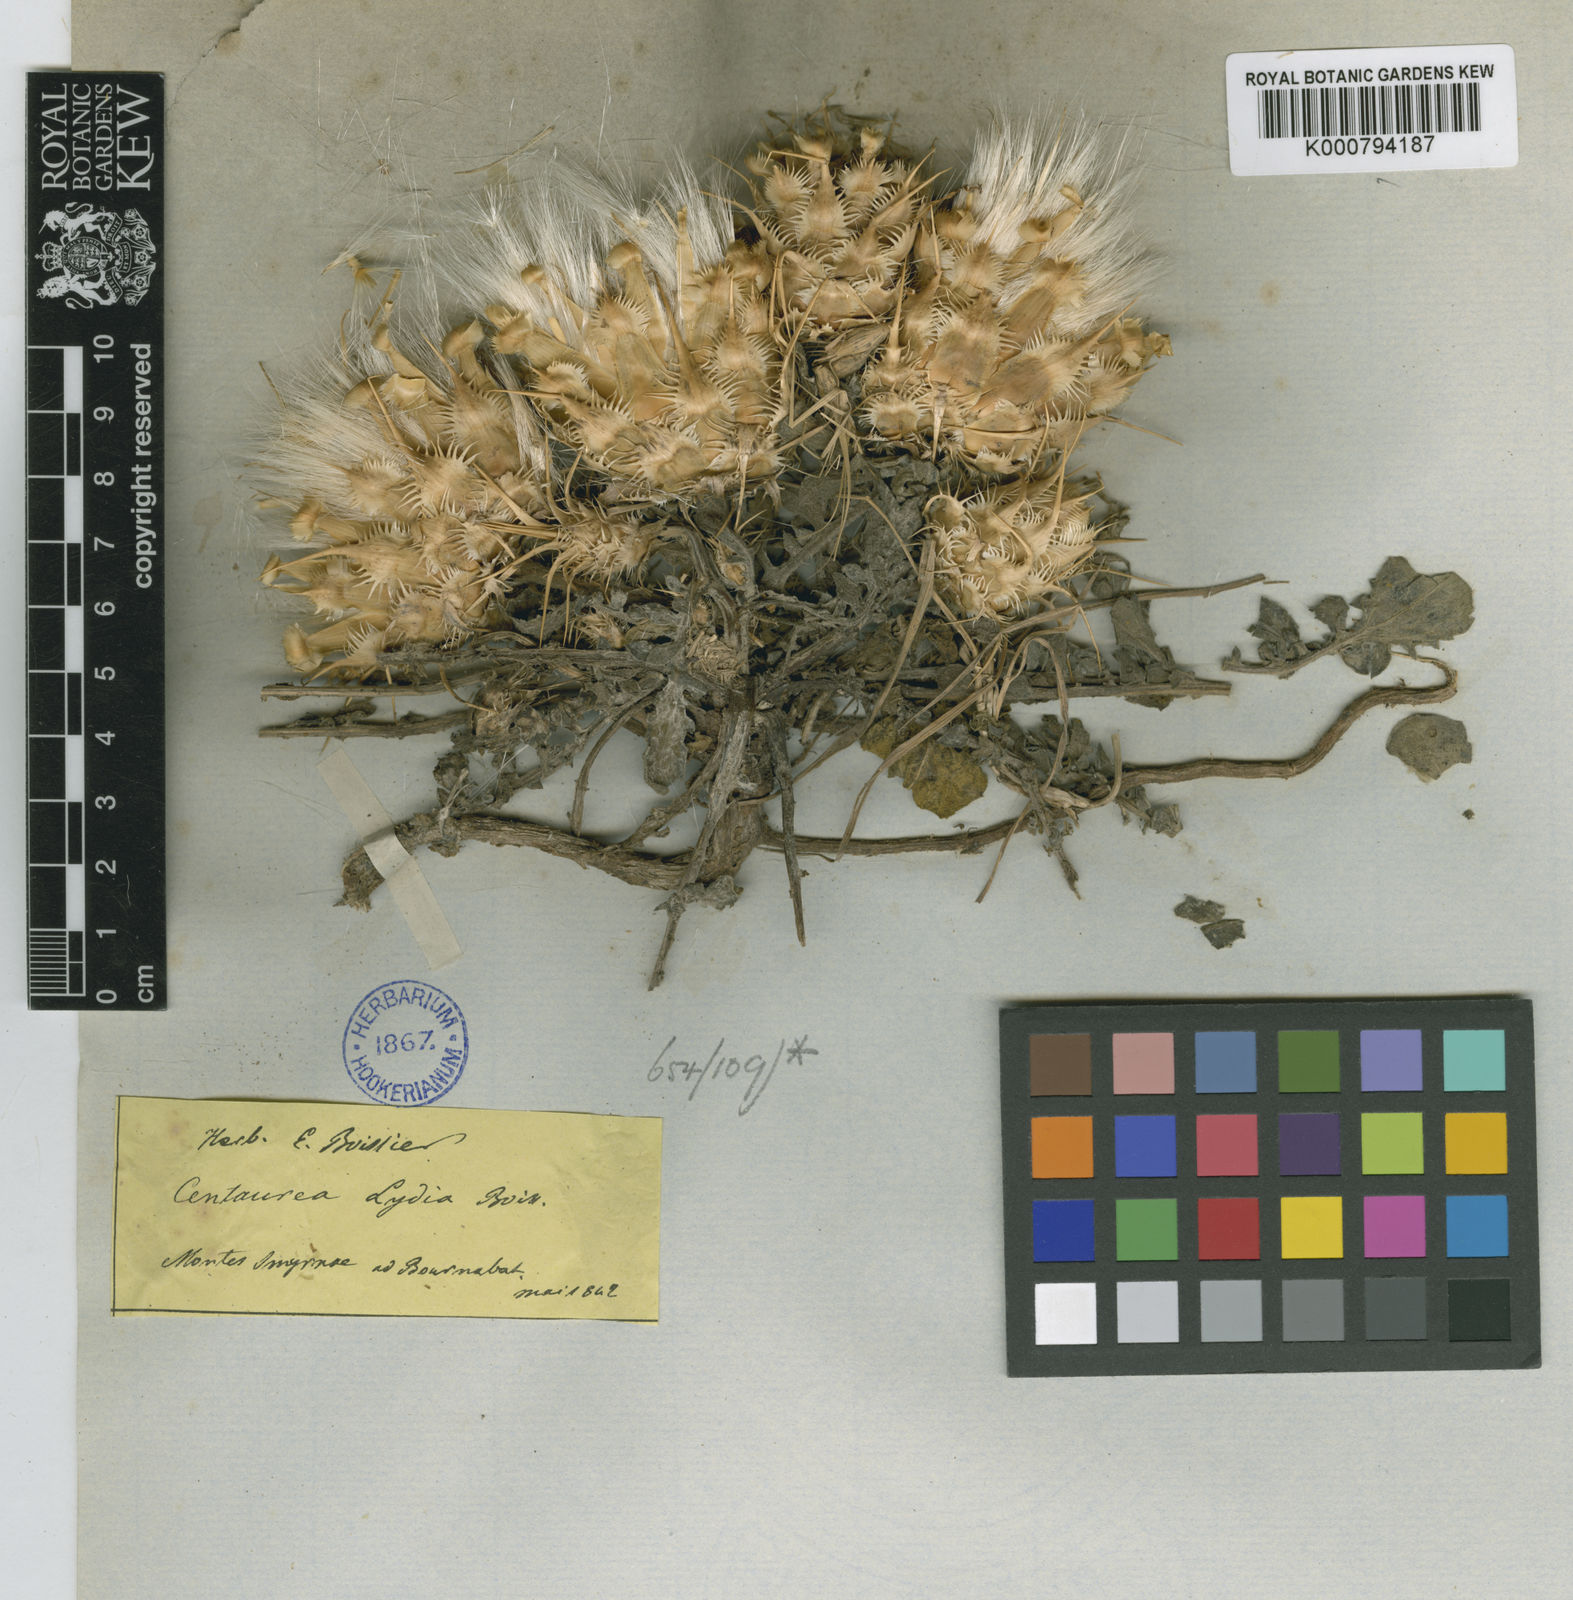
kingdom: Plantae
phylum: Tracheophyta
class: Magnoliopsida
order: Asterales
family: Asteraceae
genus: Centaurea
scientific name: Centaurea lydia
